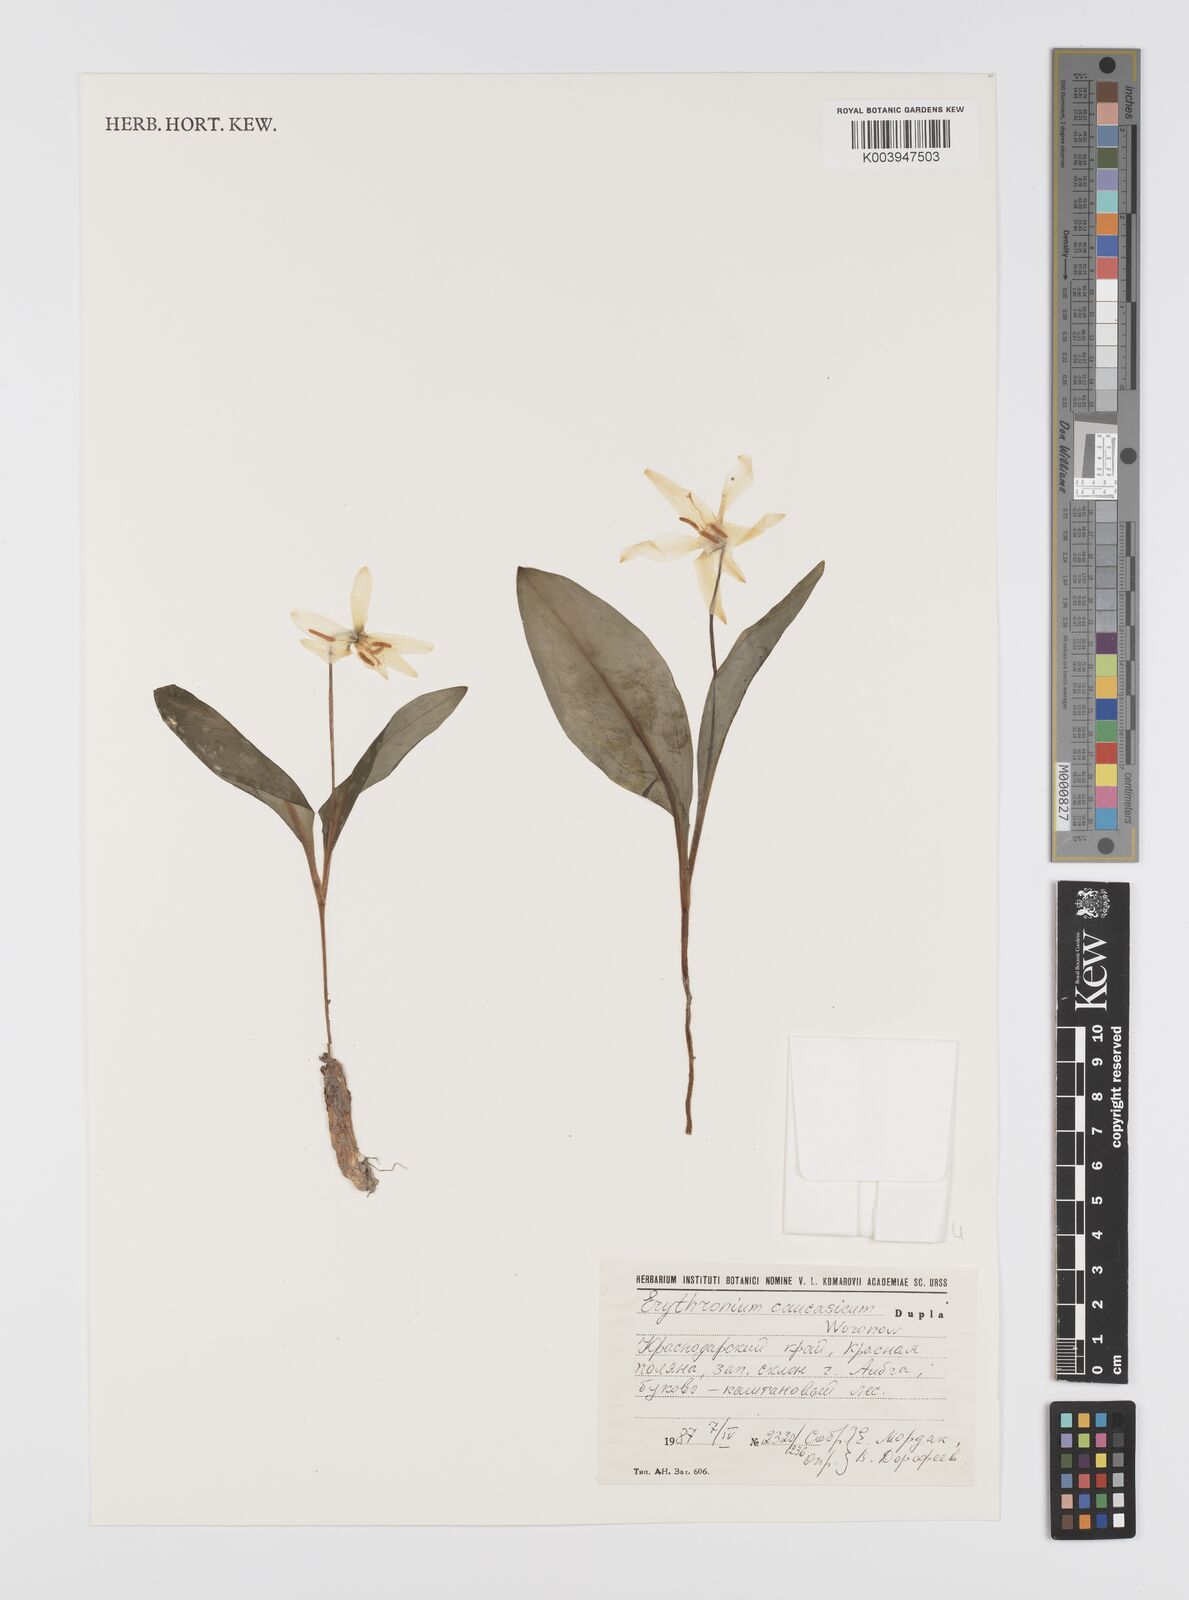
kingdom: Plantae
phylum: Tracheophyta
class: Liliopsida
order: Liliales
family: Liliaceae
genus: Erythronium
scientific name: Erythronium caucasicum
